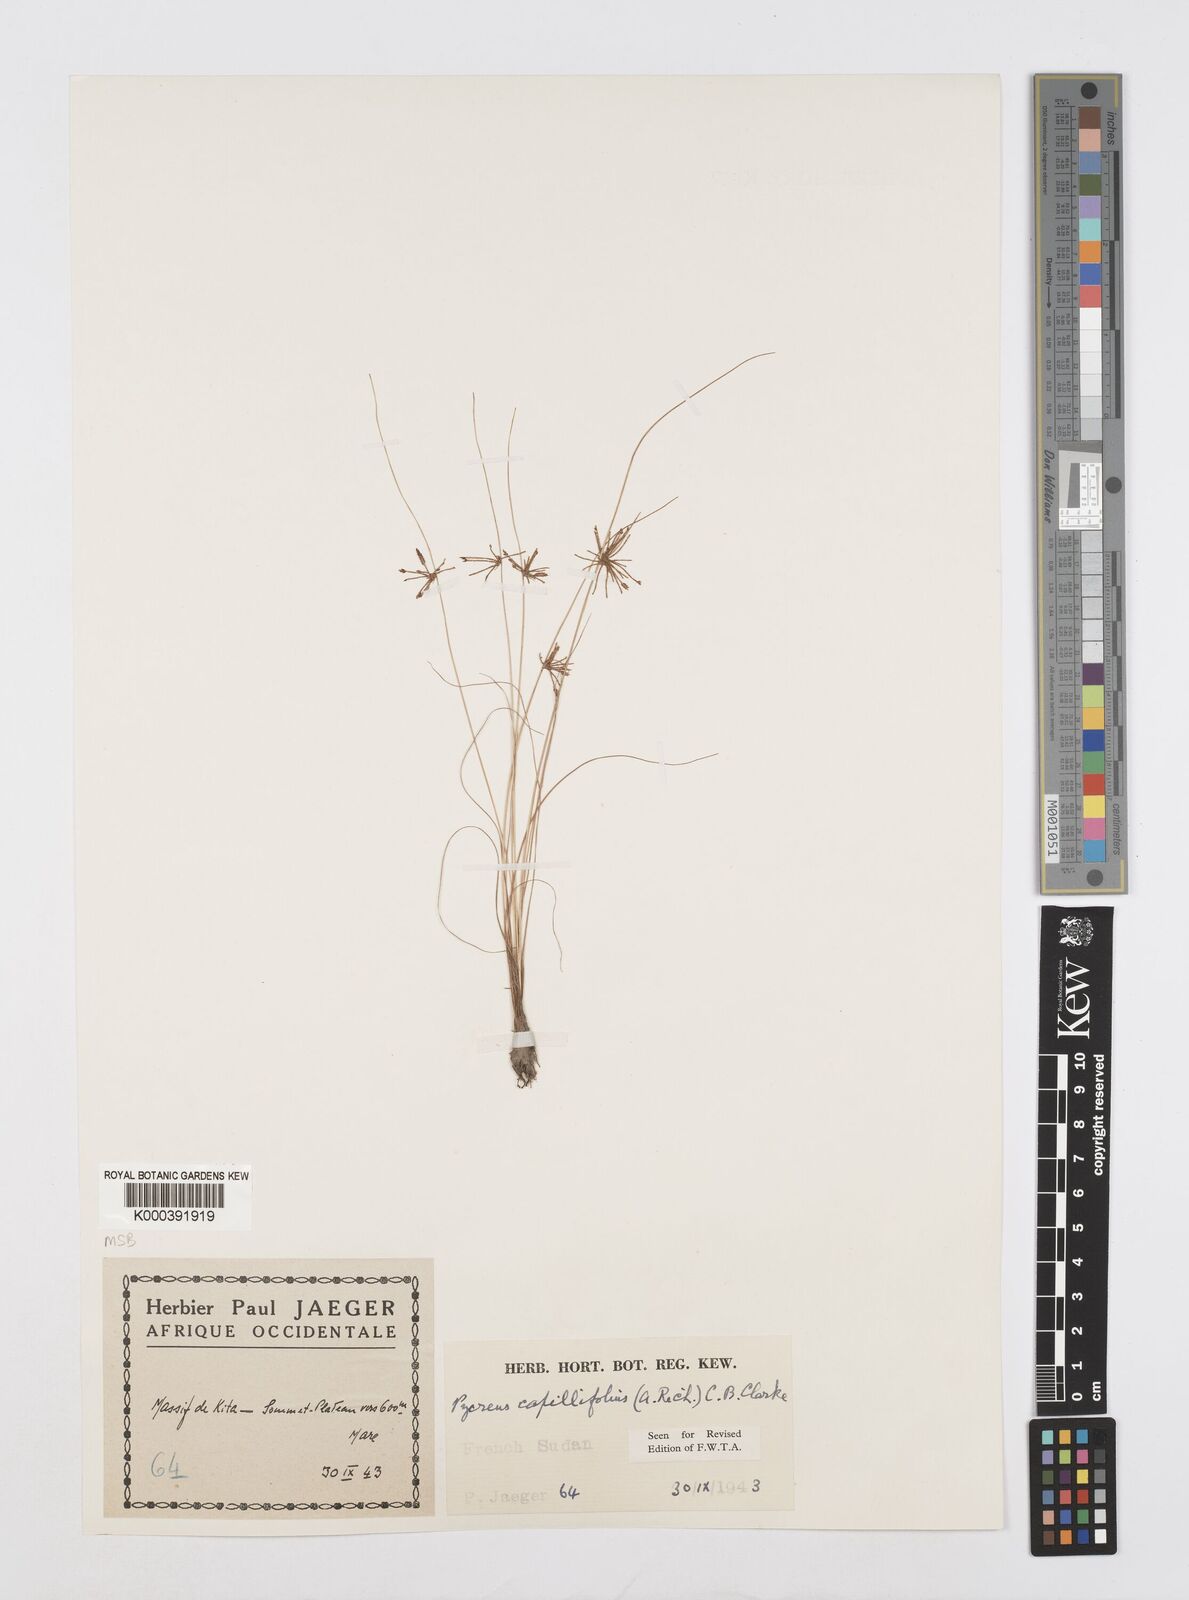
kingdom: Plantae
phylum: Tracheophyta
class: Liliopsida
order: Poales
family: Cyperaceae
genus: Cyperus
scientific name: Cyperus capillifolius
